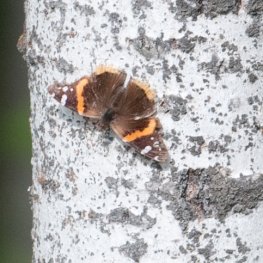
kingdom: Animalia
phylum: Arthropoda
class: Insecta
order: Lepidoptera
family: Nymphalidae
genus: Vanessa
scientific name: Vanessa atalanta
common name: Red Admiral
